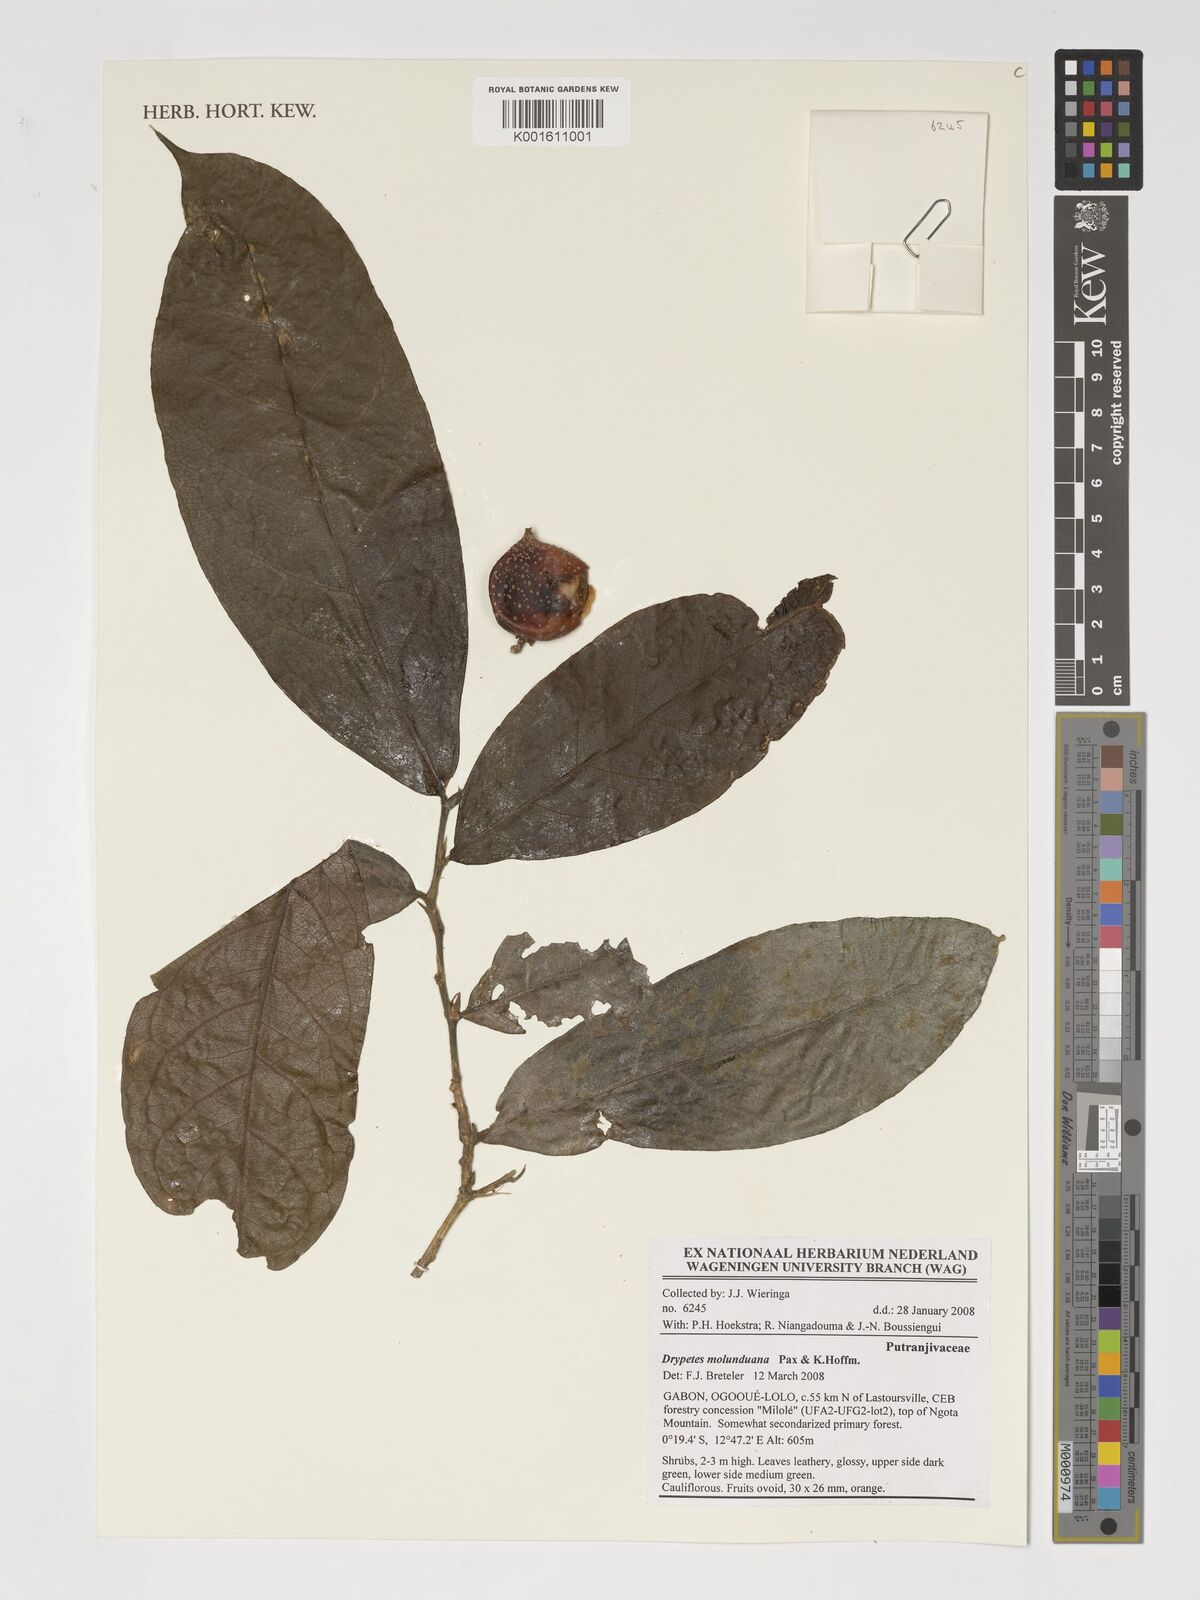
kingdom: Plantae
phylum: Tracheophyta
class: Magnoliopsida
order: Malpighiales
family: Putranjivaceae
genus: Drypetes
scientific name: Drypetes molunduana
